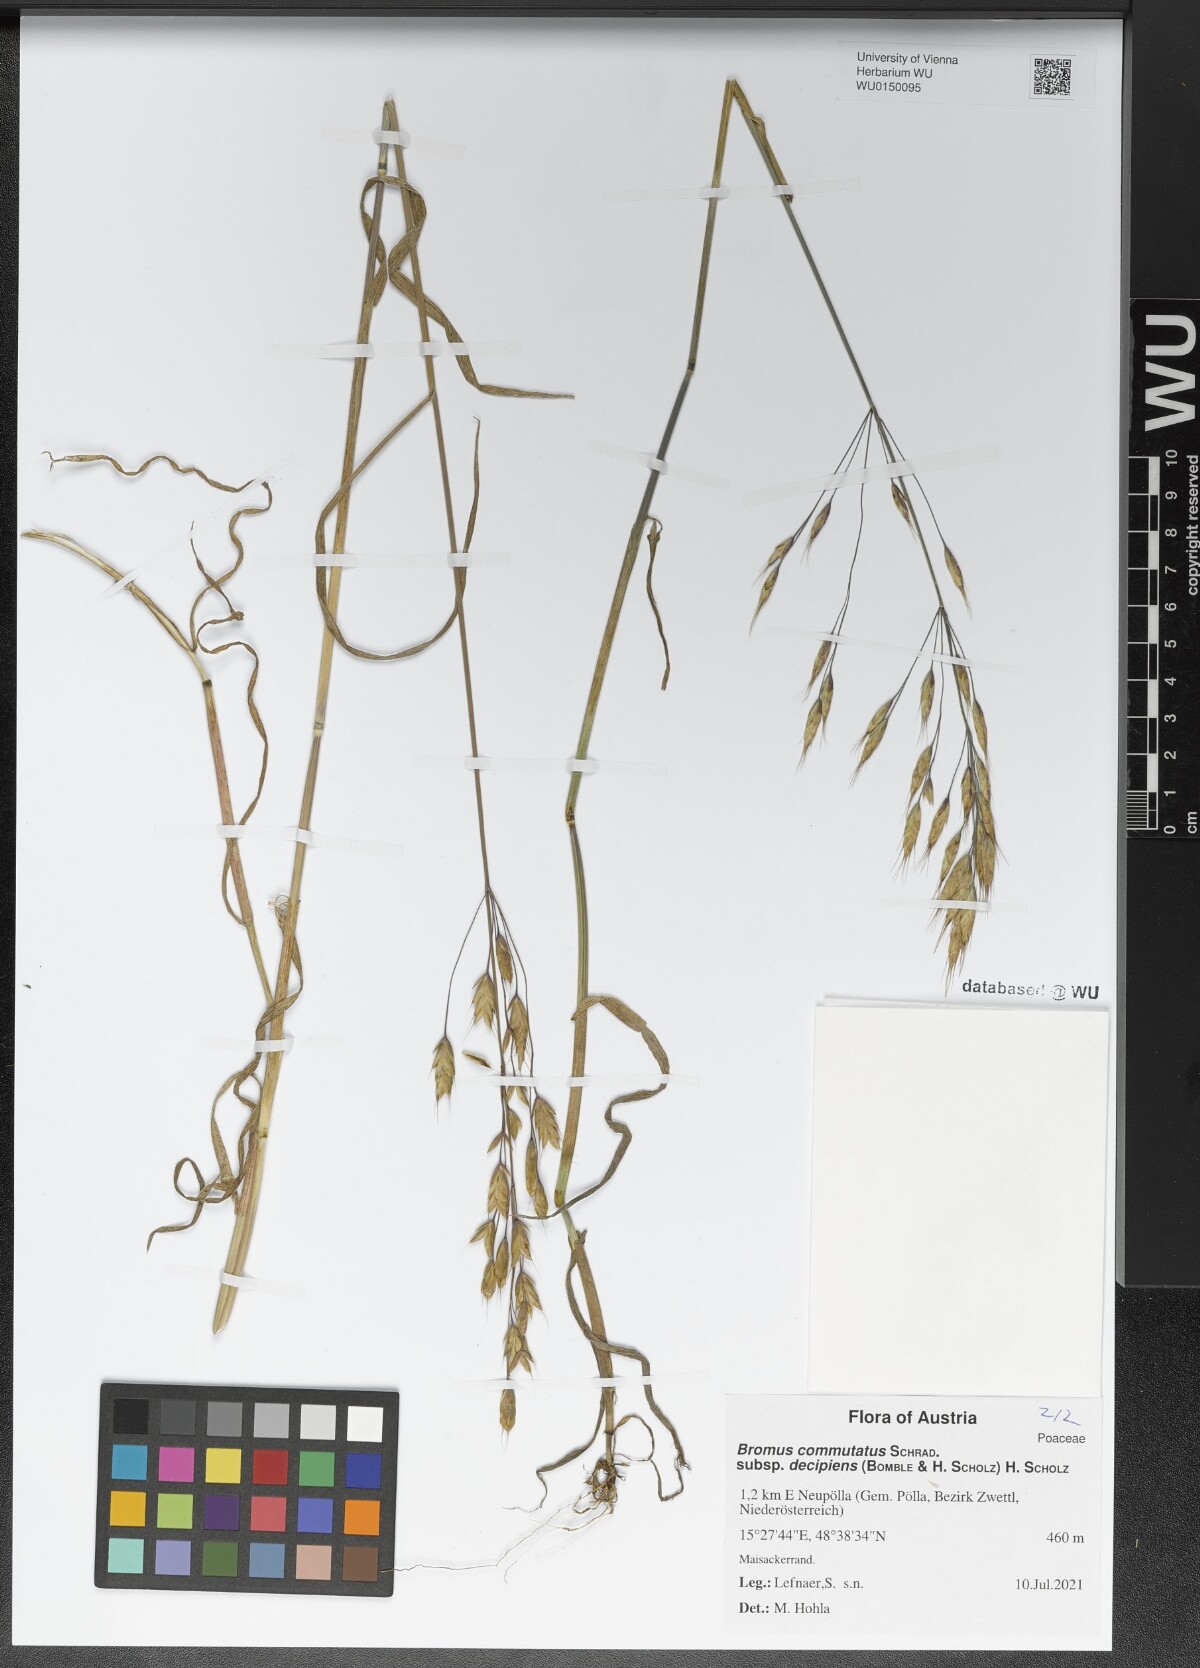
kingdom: Plantae
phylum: Tracheophyta
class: Liliopsida
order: Poales
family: Poaceae
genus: Bromus
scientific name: Bromus commutatus
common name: Meadow brome
